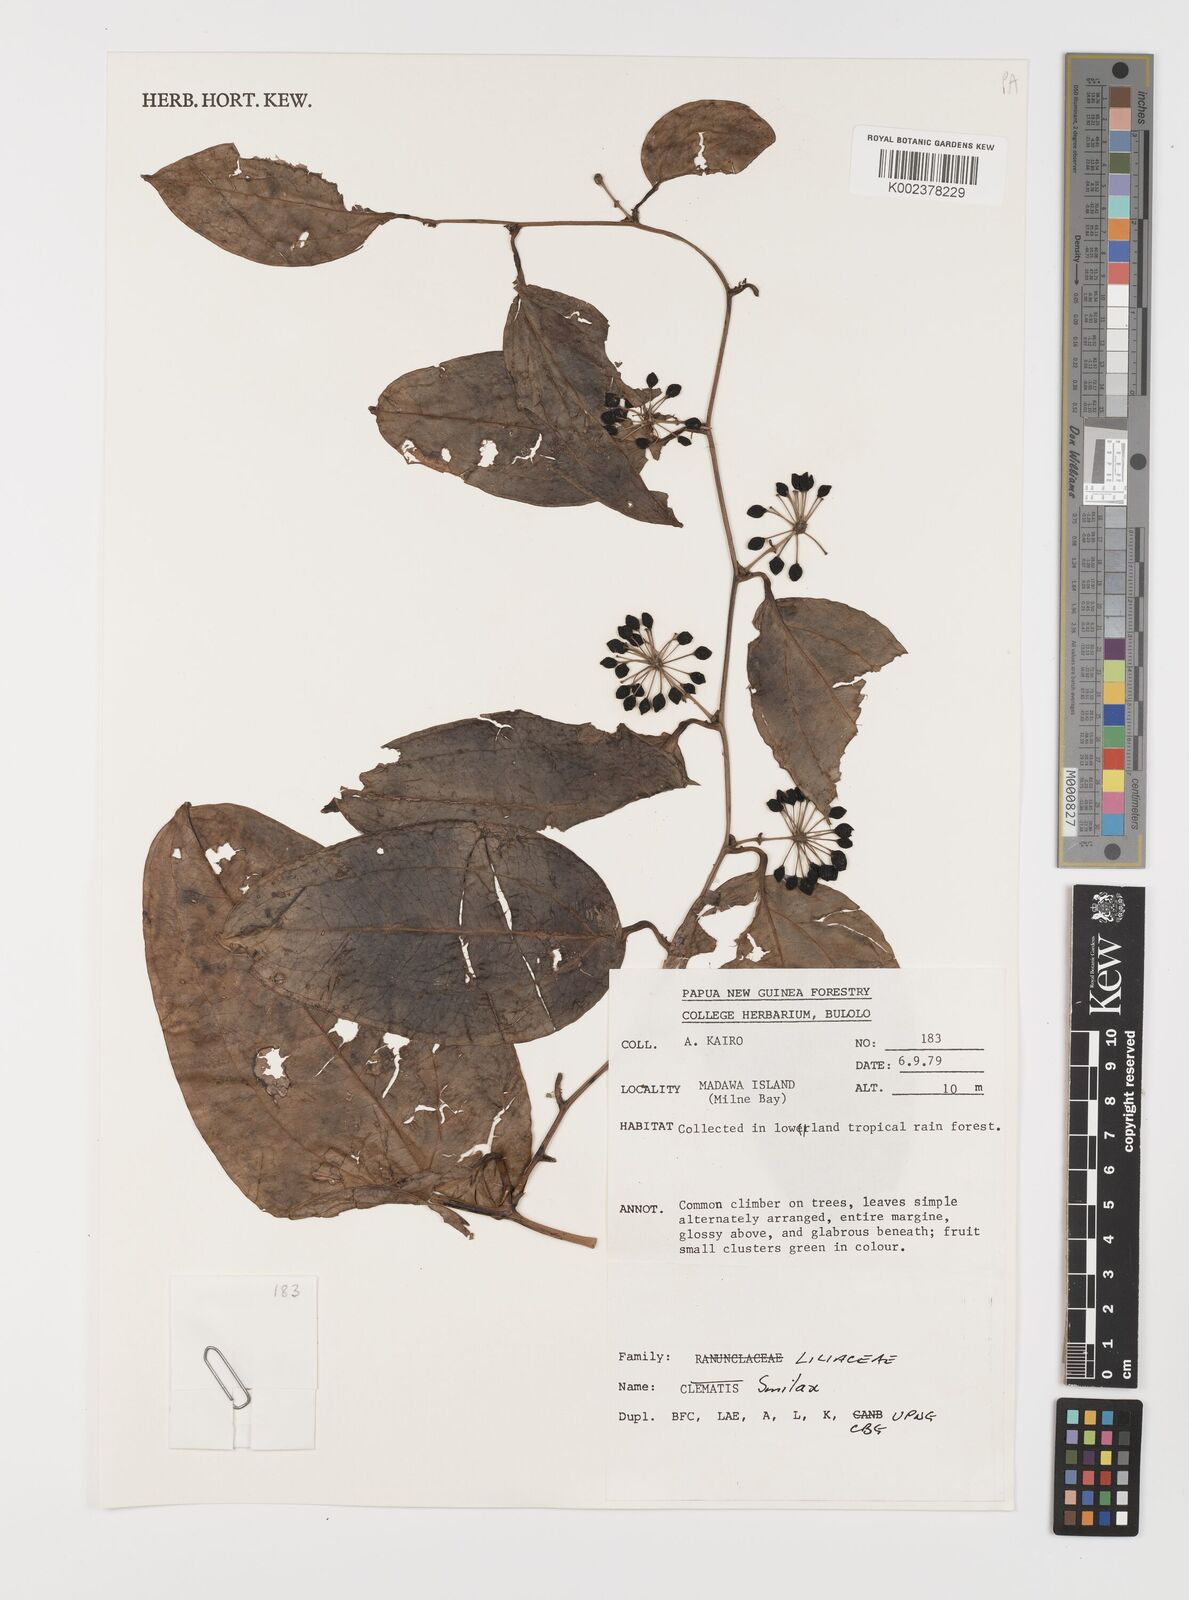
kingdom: Plantae
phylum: Tracheophyta
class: Liliopsida
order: Liliales
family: Smilacaceae
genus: Smilax
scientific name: Smilax
